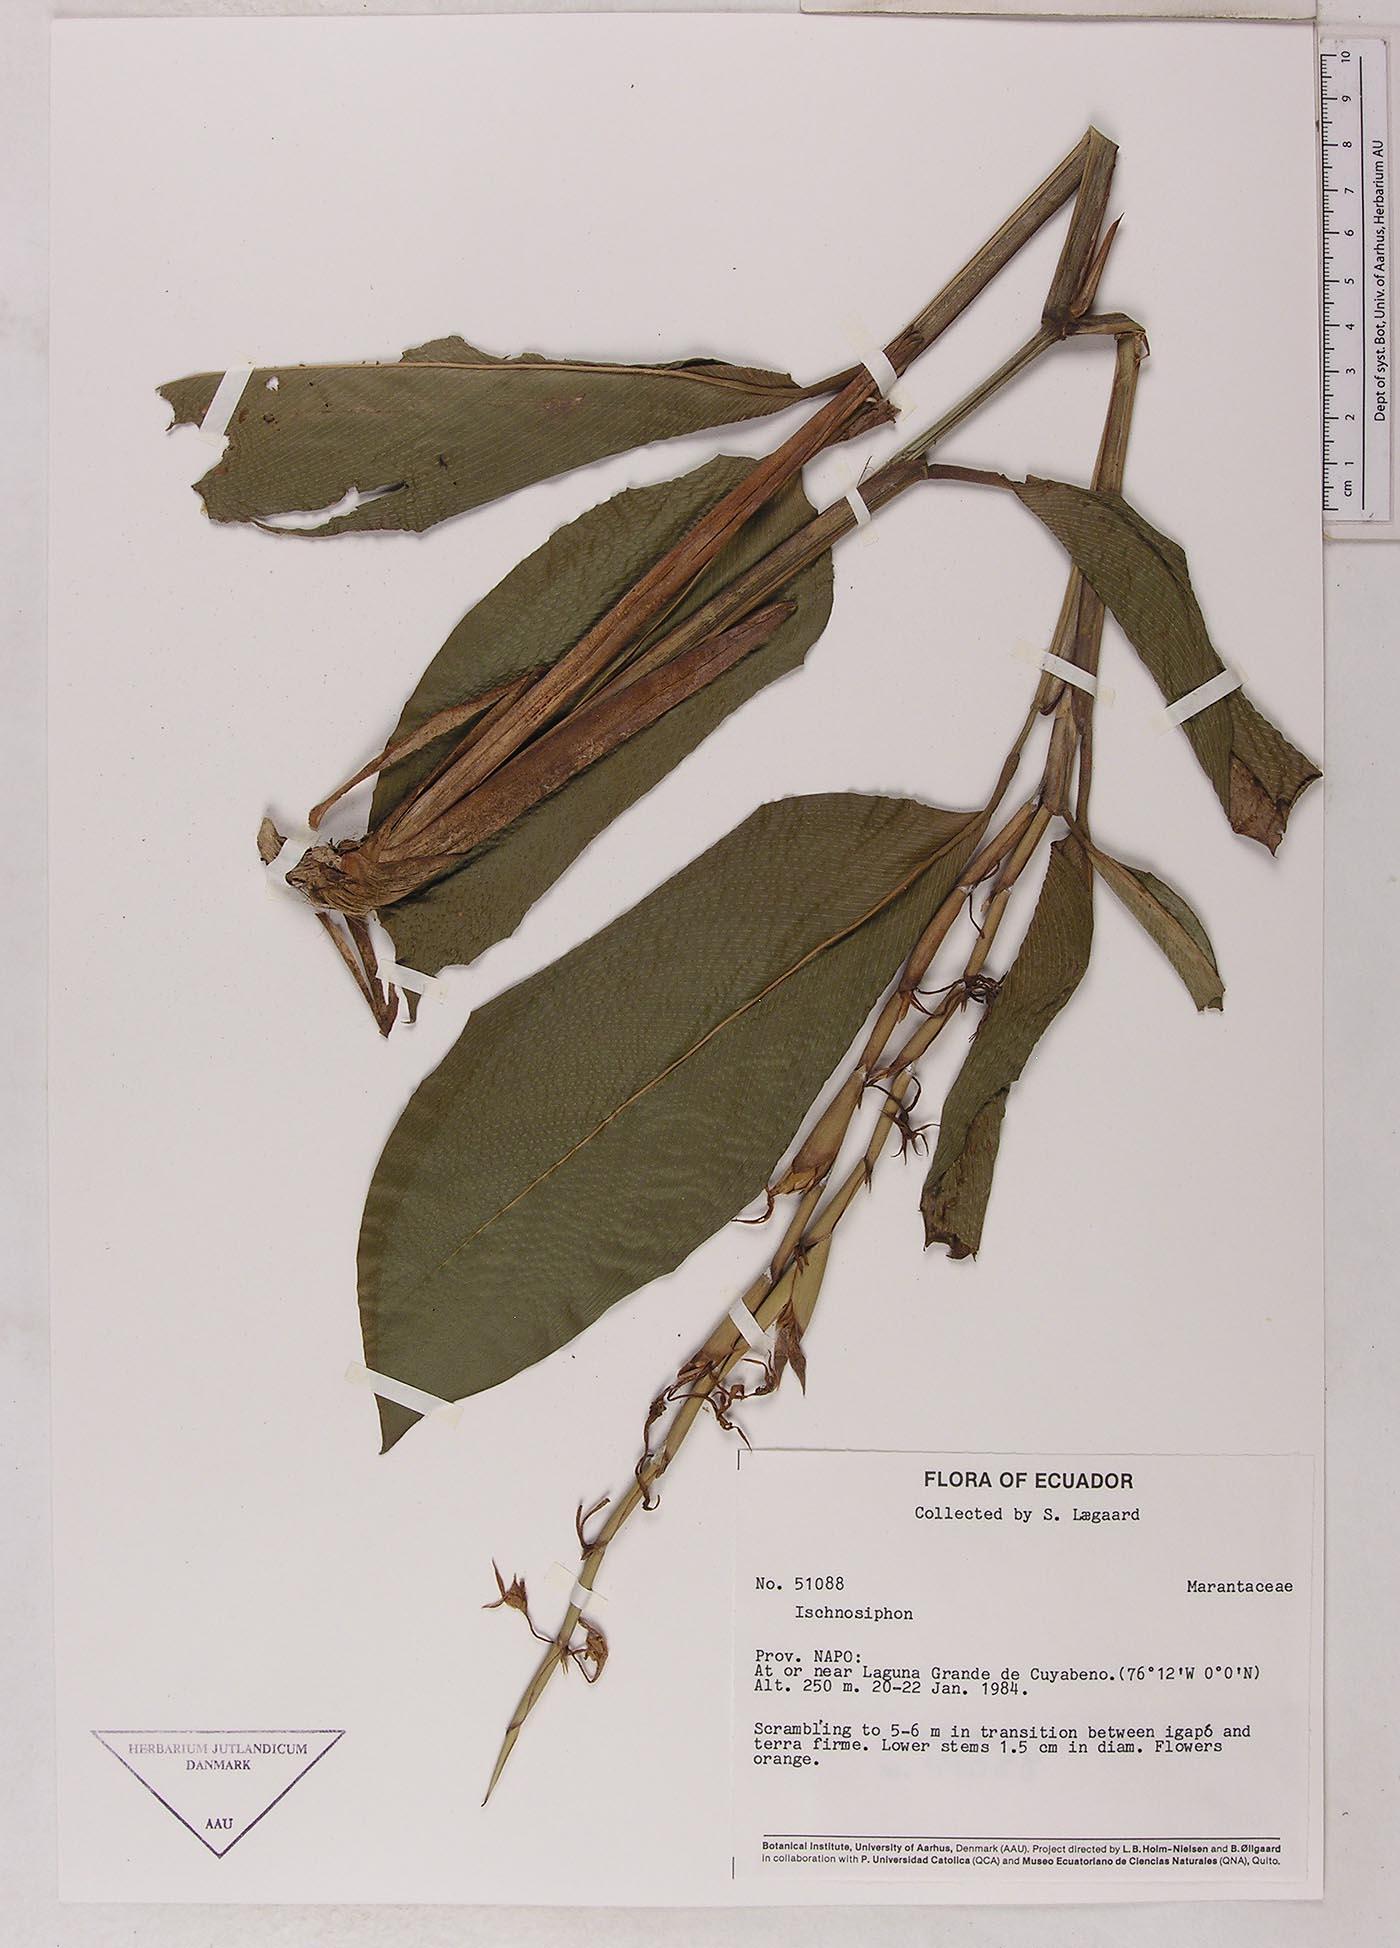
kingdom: Plantae
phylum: Tracheophyta
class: Liliopsida
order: Zingiberales
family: Marantaceae
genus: Ischnosiphon
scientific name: Ischnosiphon puberulus
